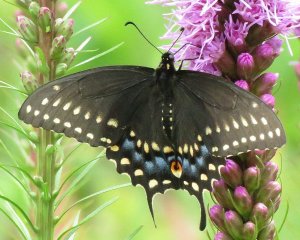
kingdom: Animalia
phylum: Arthropoda
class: Insecta
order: Lepidoptera
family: Papilionidae
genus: Papilio
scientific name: Papilio polyxenes
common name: Black Swallowtail
